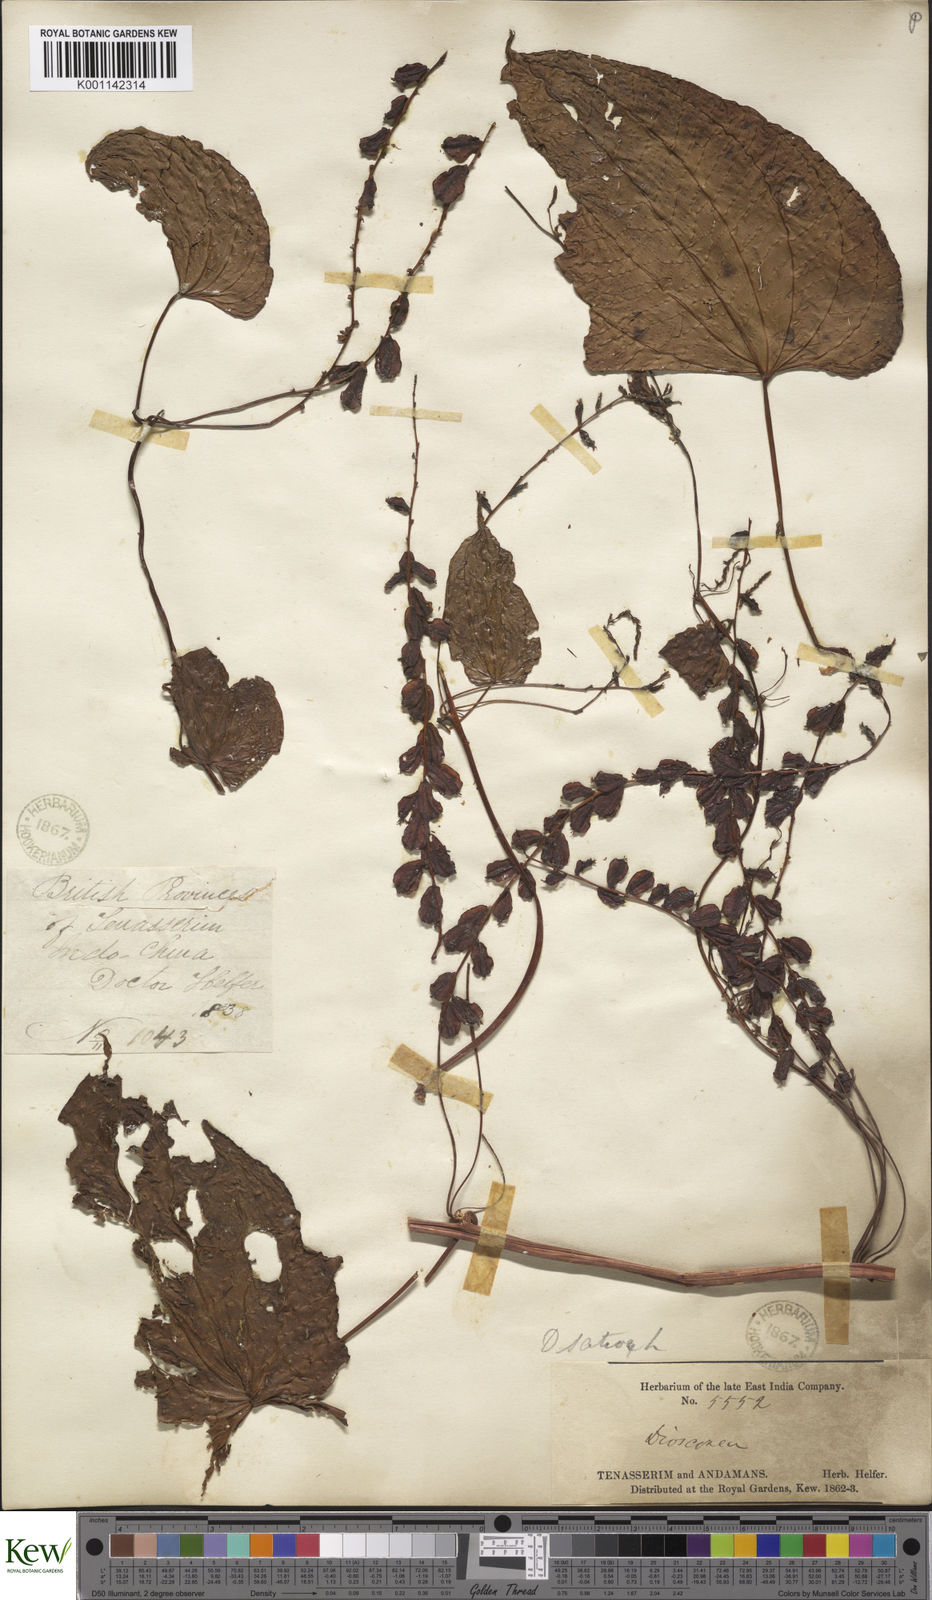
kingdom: Plantae
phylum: Tracheophyta
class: Liliopsida
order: Dioscoreales
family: Dioscoreaceae
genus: Dioscorea
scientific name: Dioscorea bulbifera
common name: Air yam
